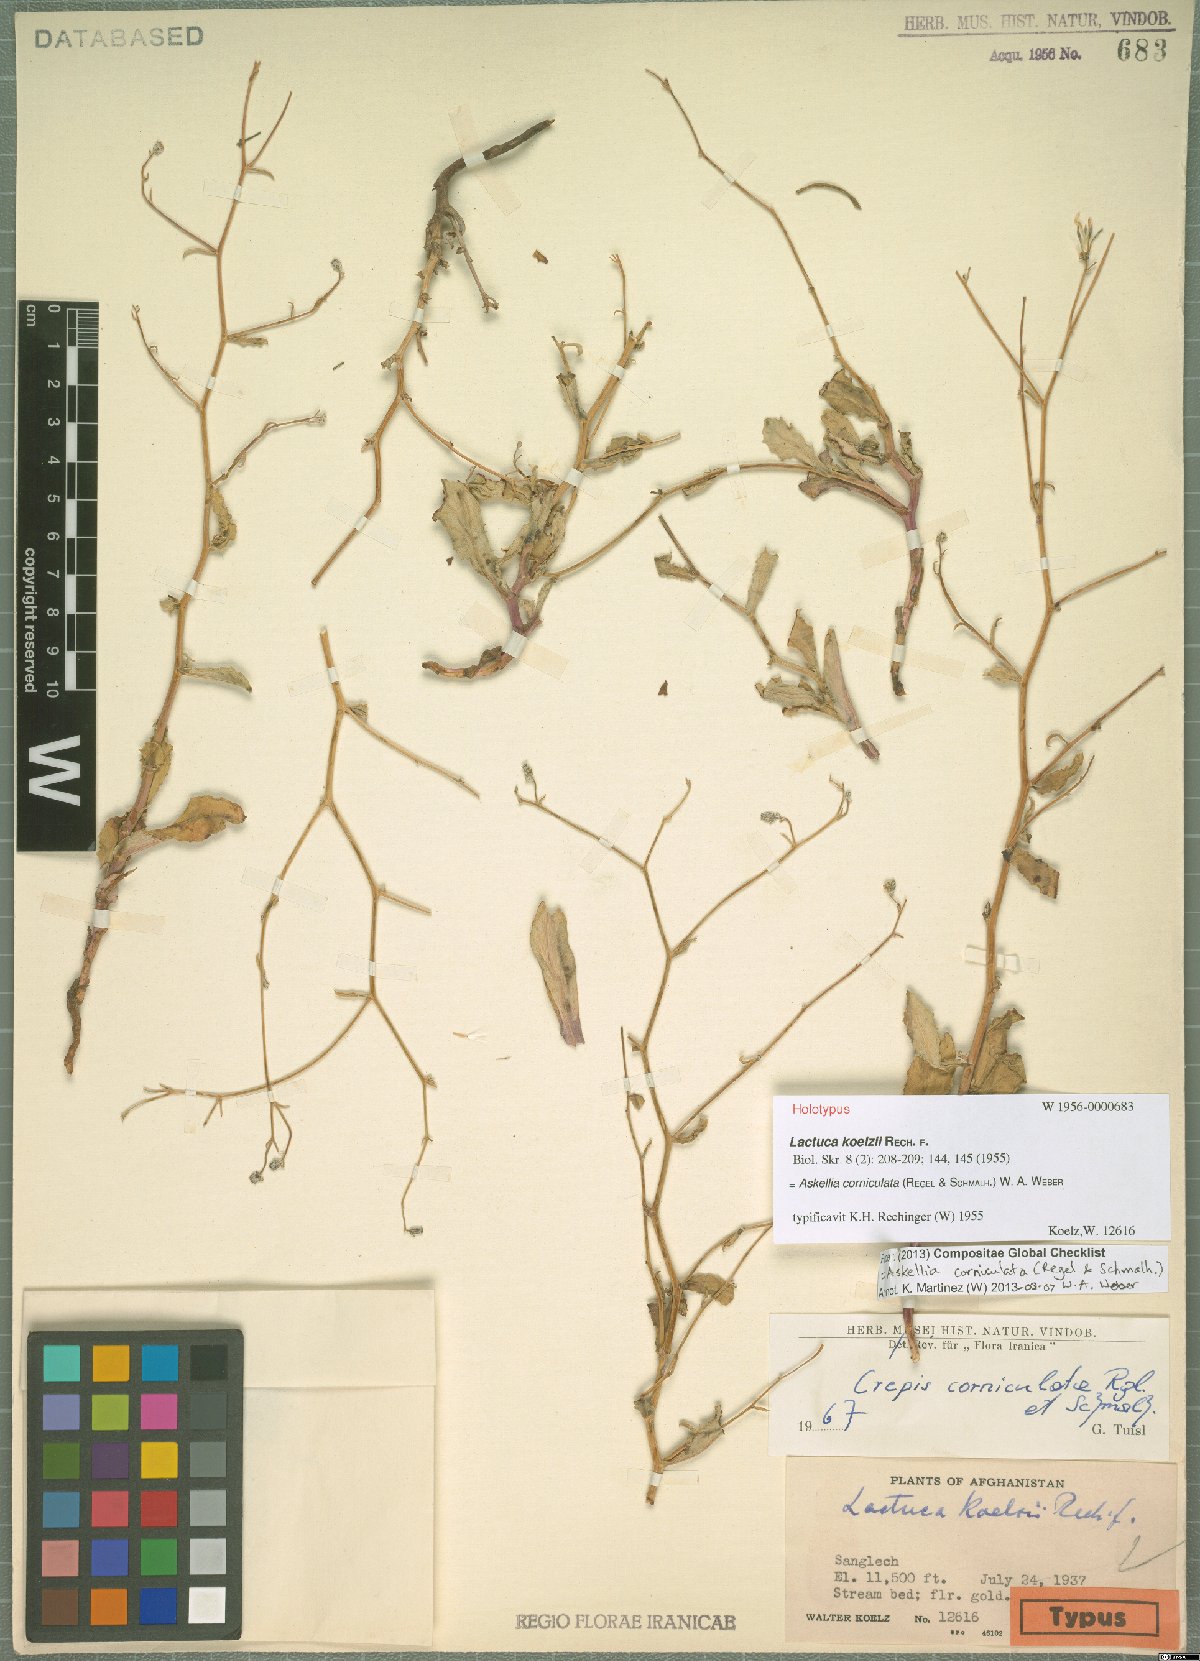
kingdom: Plantae
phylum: Tracheophyta
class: Magnoliopsida
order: Asterales
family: Asteraceae
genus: Youngia
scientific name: Youngia corniculata
